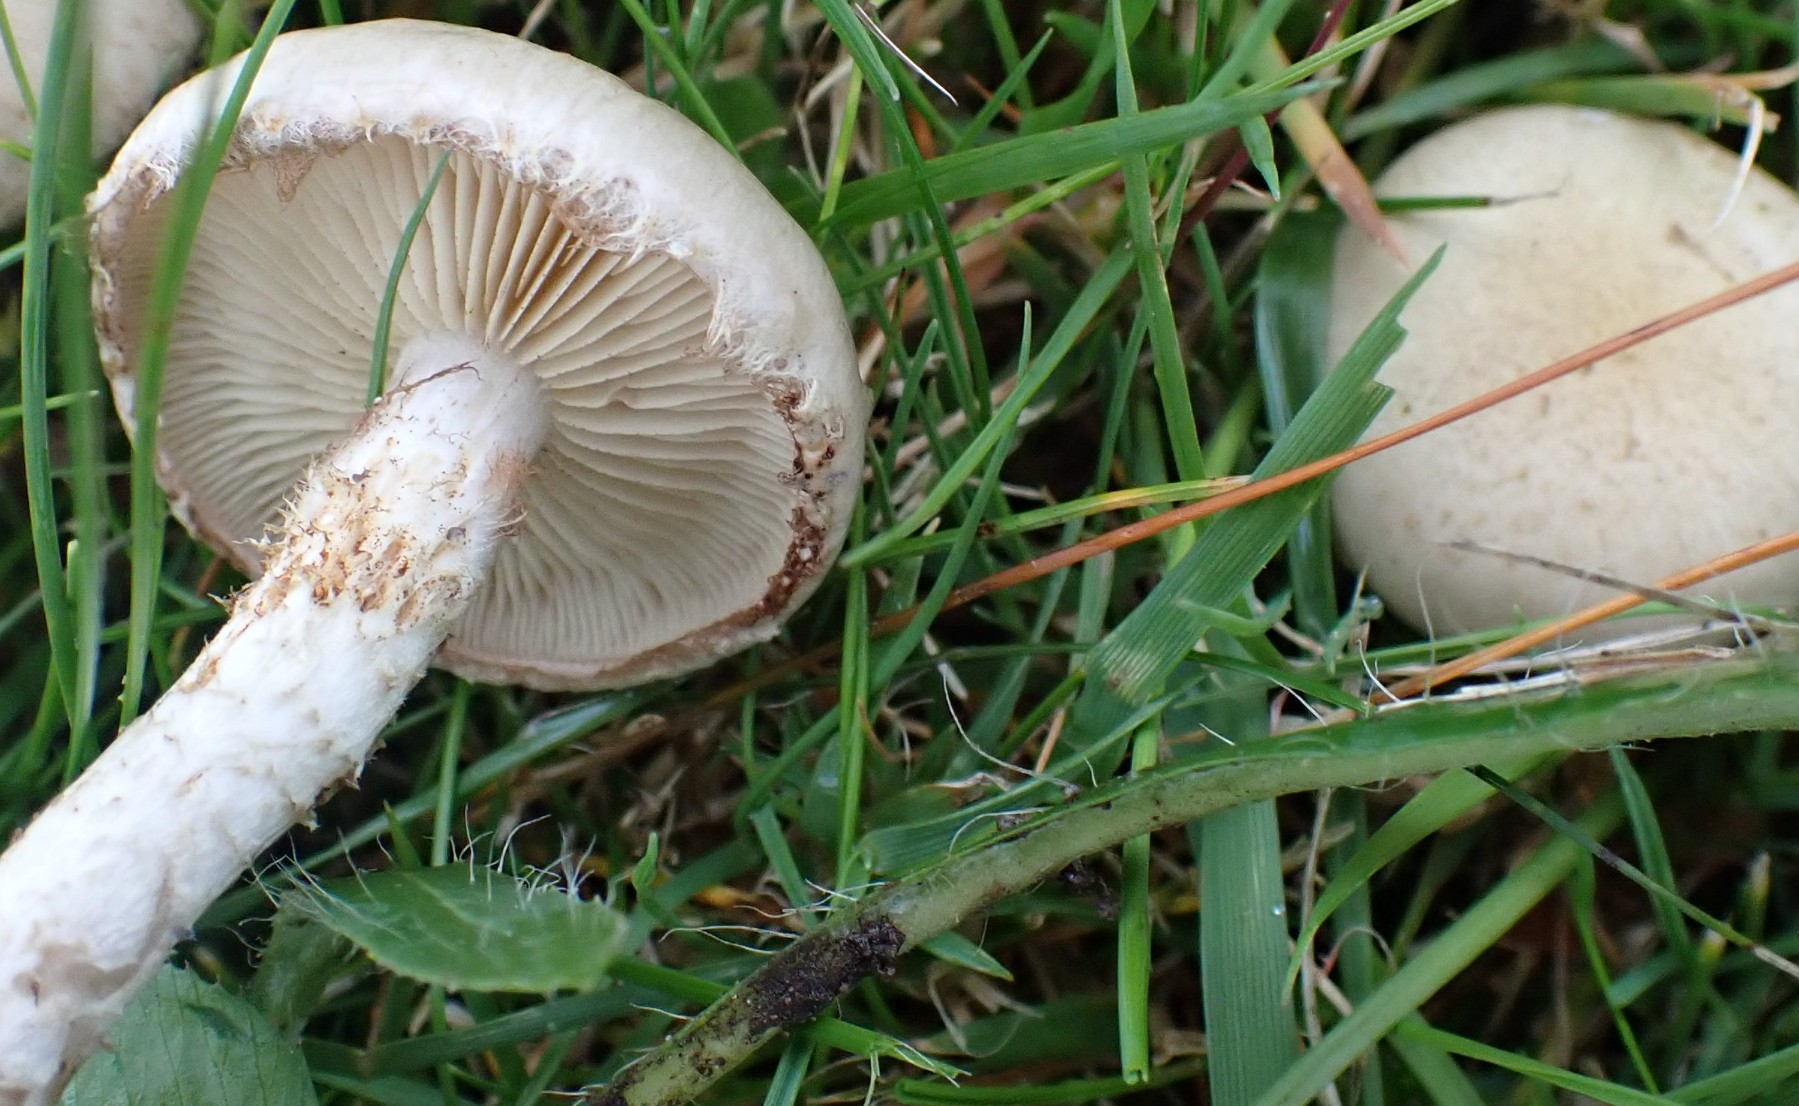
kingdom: Fungi
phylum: Basidiomycota
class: Agaricomycetes
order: Agaricales
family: Strophariaceae
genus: Pholiota
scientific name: Pholiota gummosa
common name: grøngul skælhat
